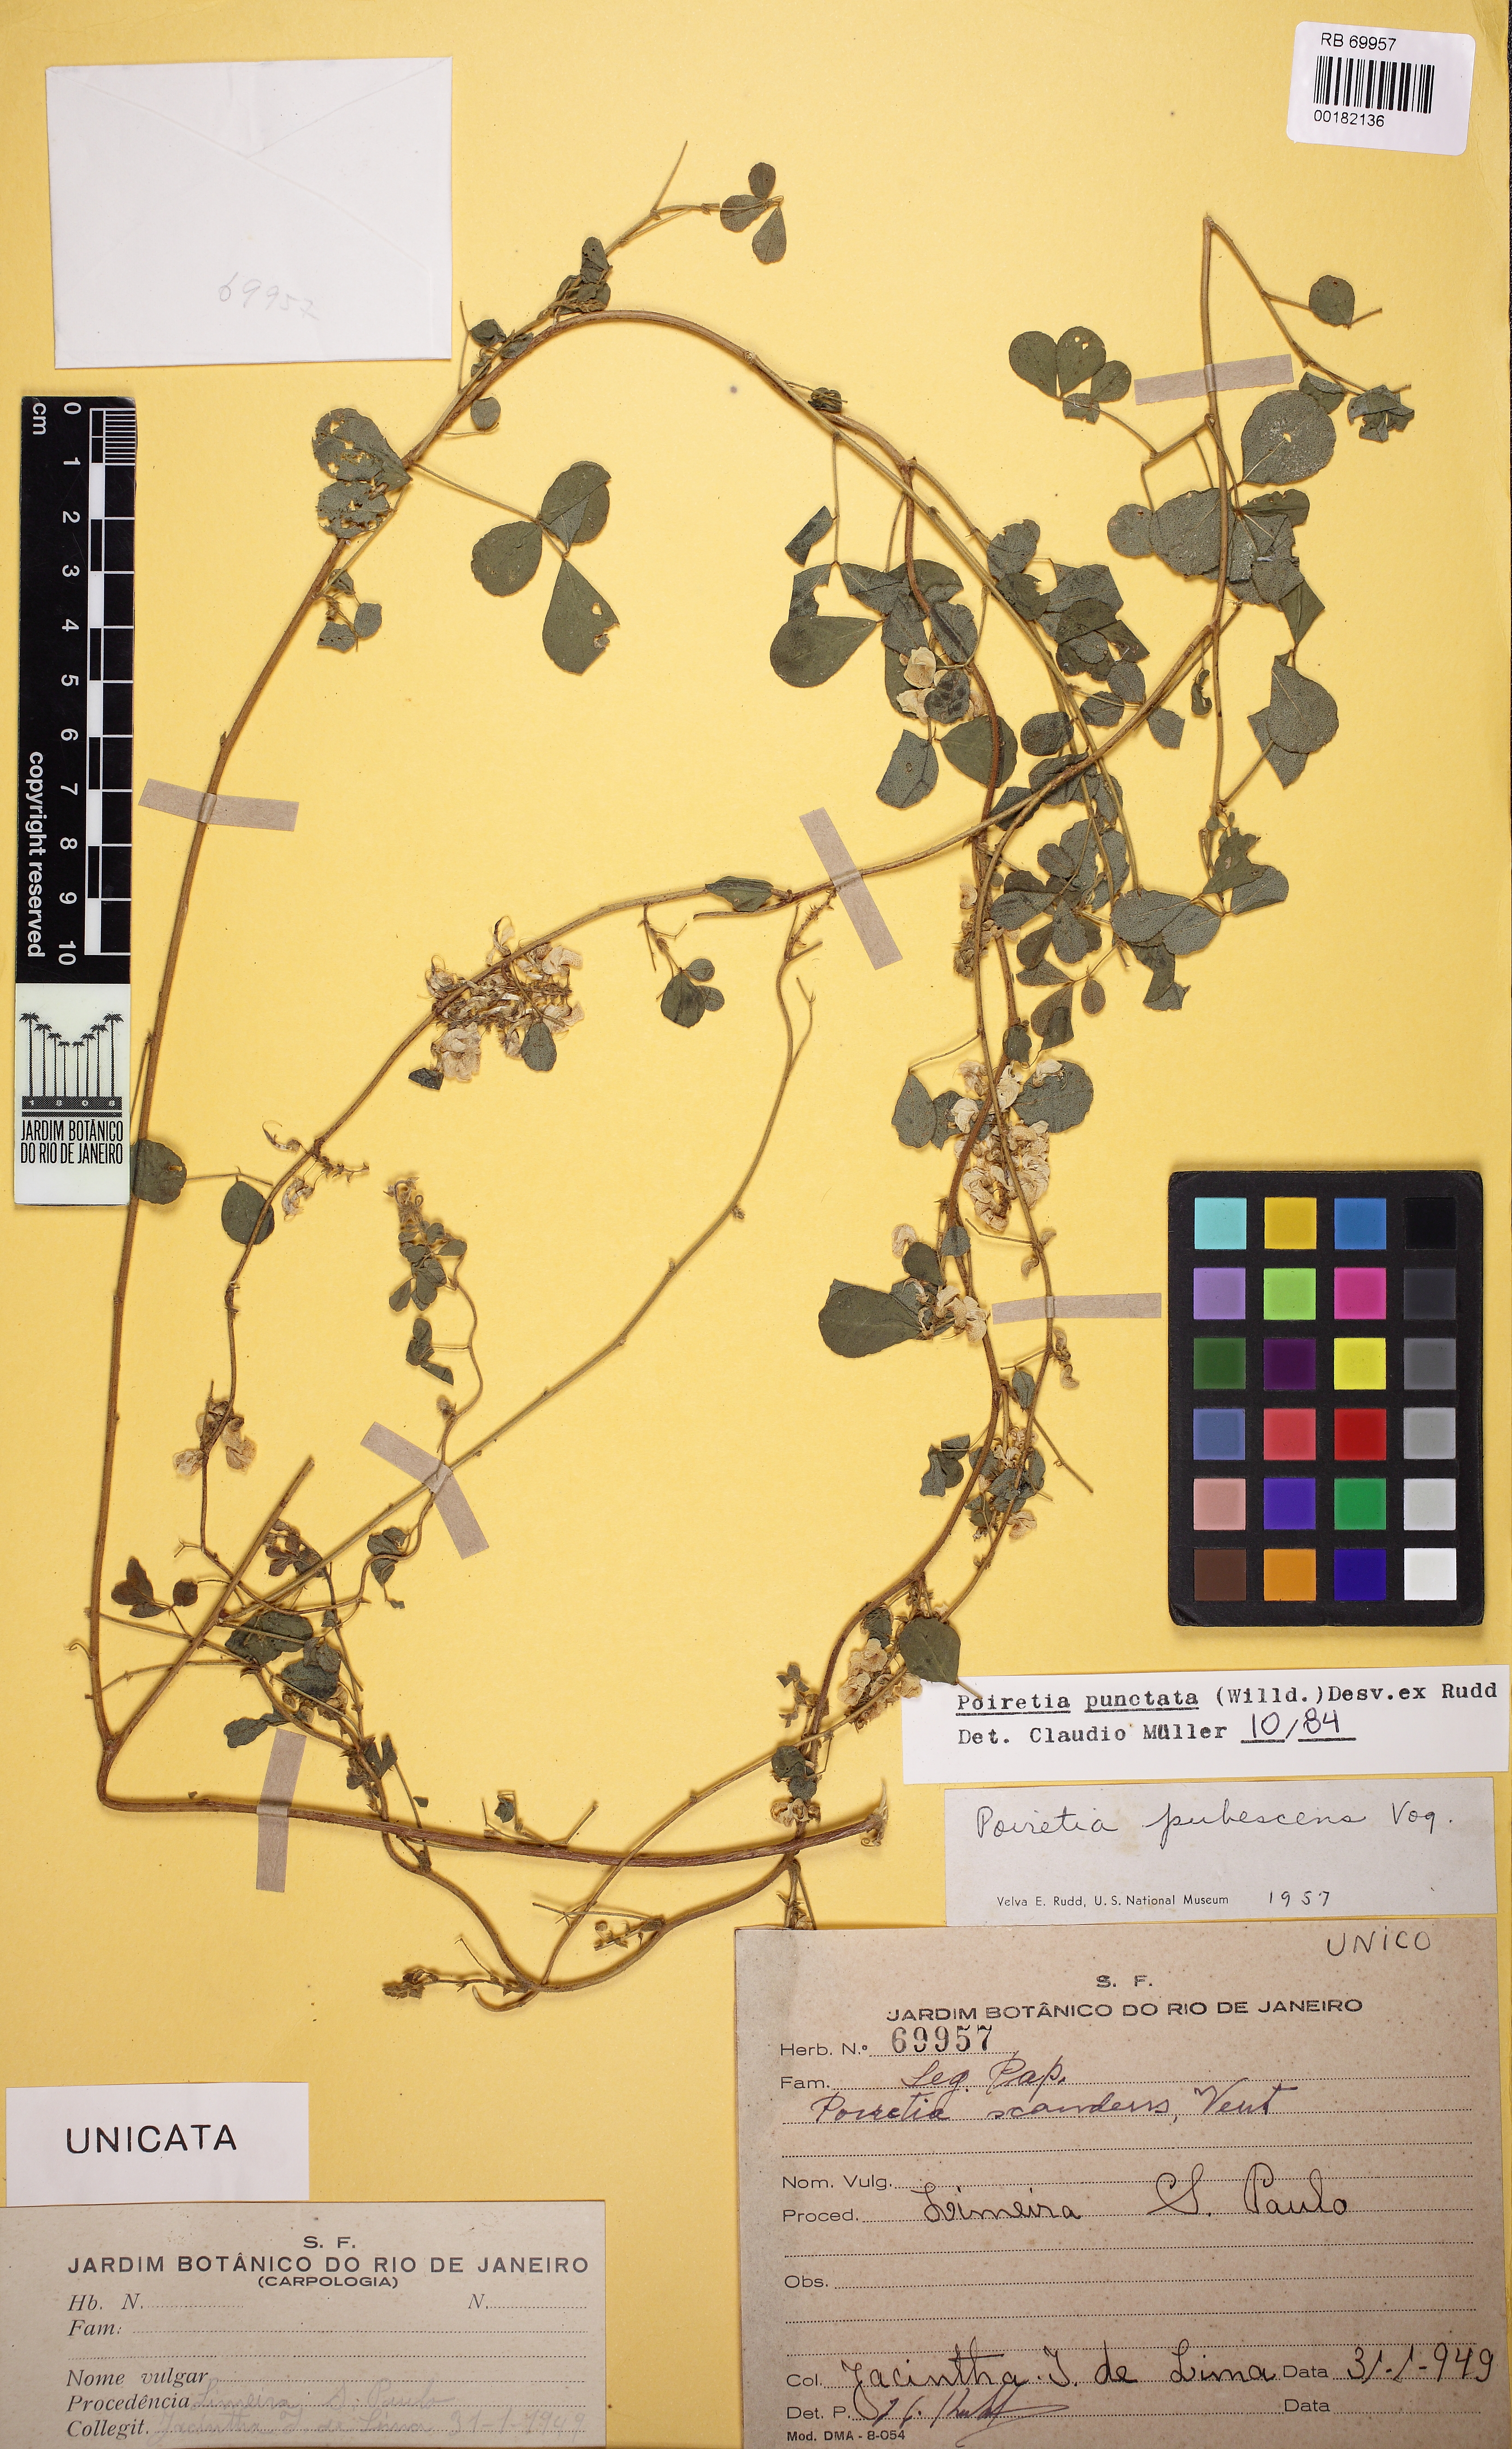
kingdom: Plantae
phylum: Tracheophyta
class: Magnoliopsida
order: Fabales
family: Fabaceae
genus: Poiretia
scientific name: Poiretia punctata
